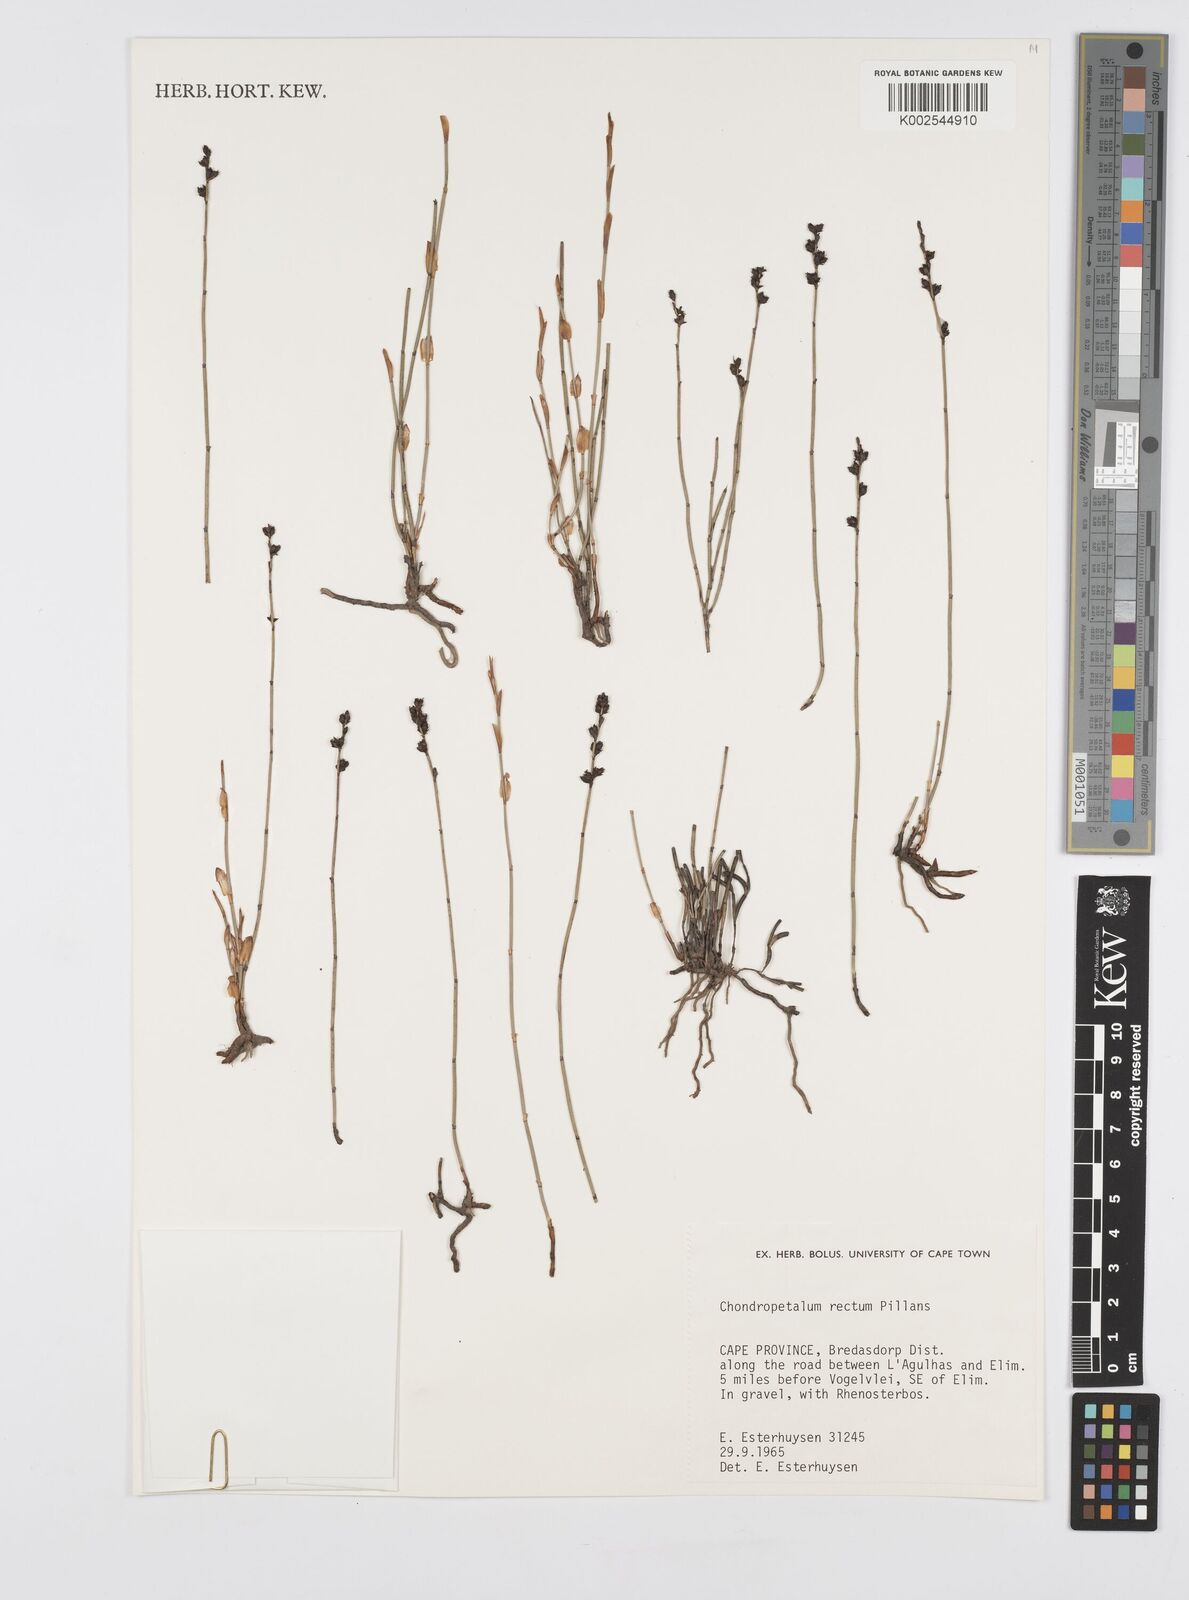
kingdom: Plantae
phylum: Tracheophyta
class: Liliopsida
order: Poales
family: Restionaceae
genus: Elegia
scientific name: Elegia recta
